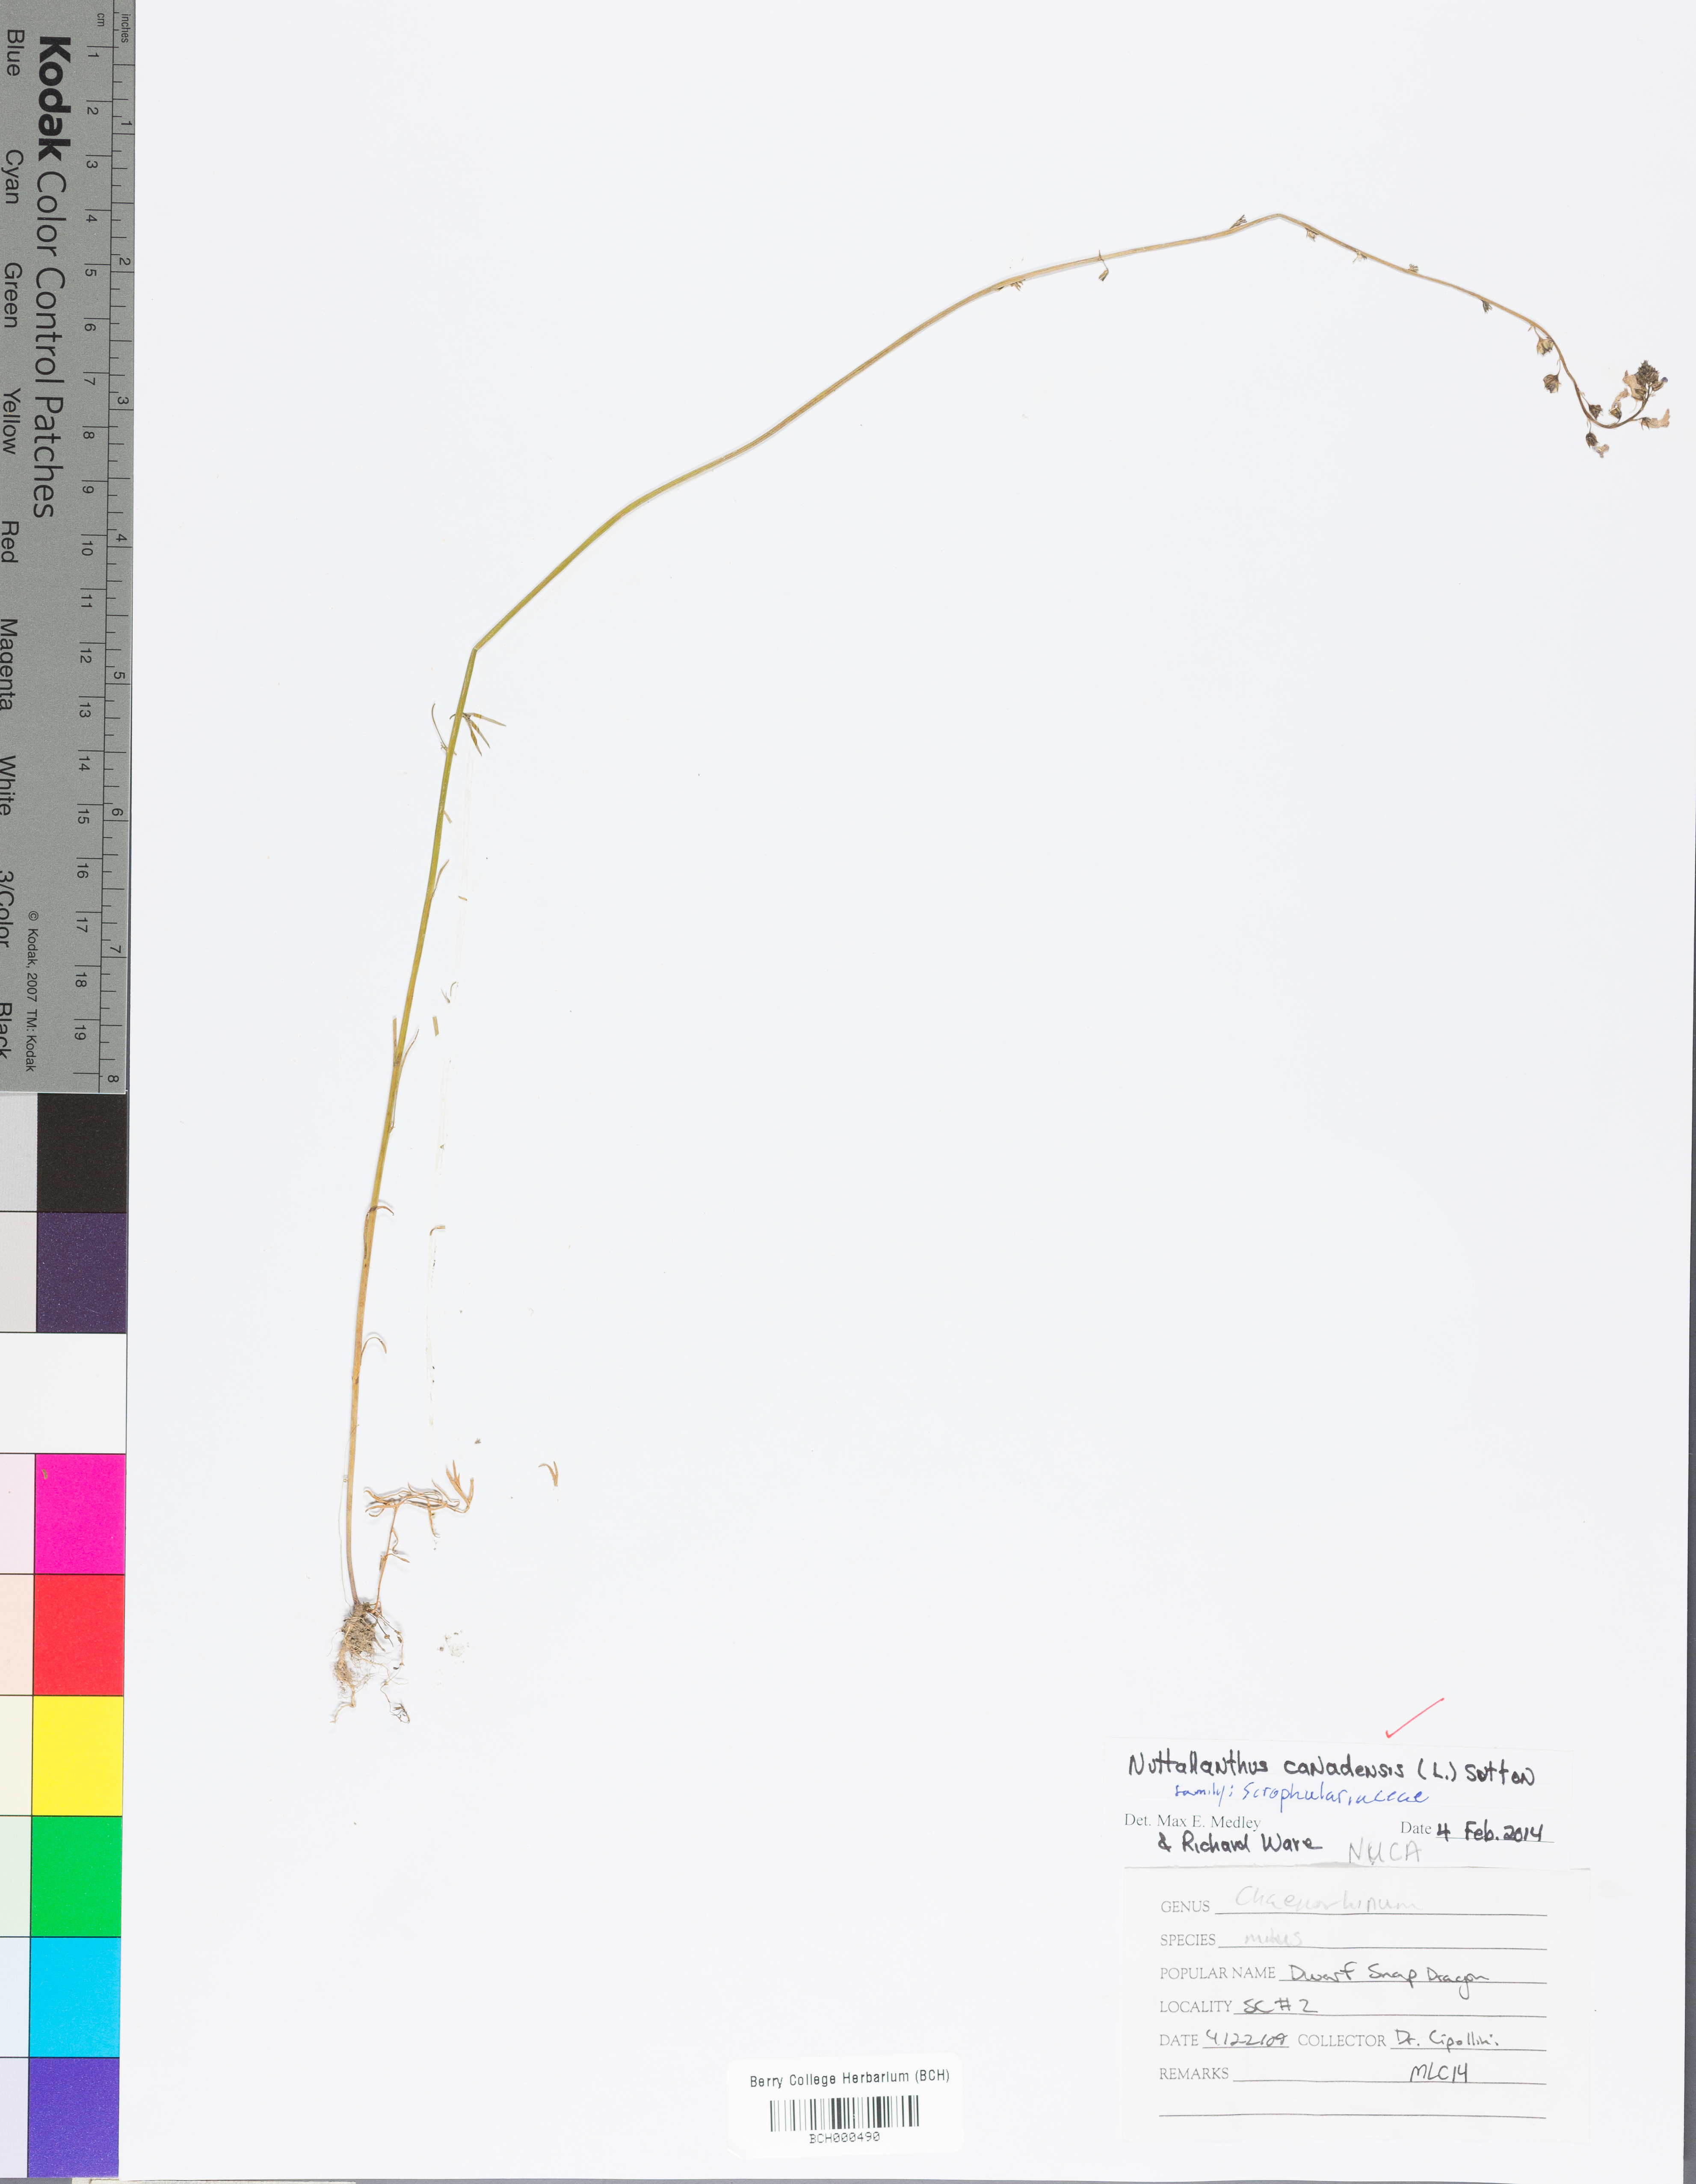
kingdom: Plantae
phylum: Tracheophyta
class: Magnoliopsida
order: Lamiales
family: Plantaginaceae
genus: Nuttallanthus
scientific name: Nuttallanthus canadensis
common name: Blue toadflax
